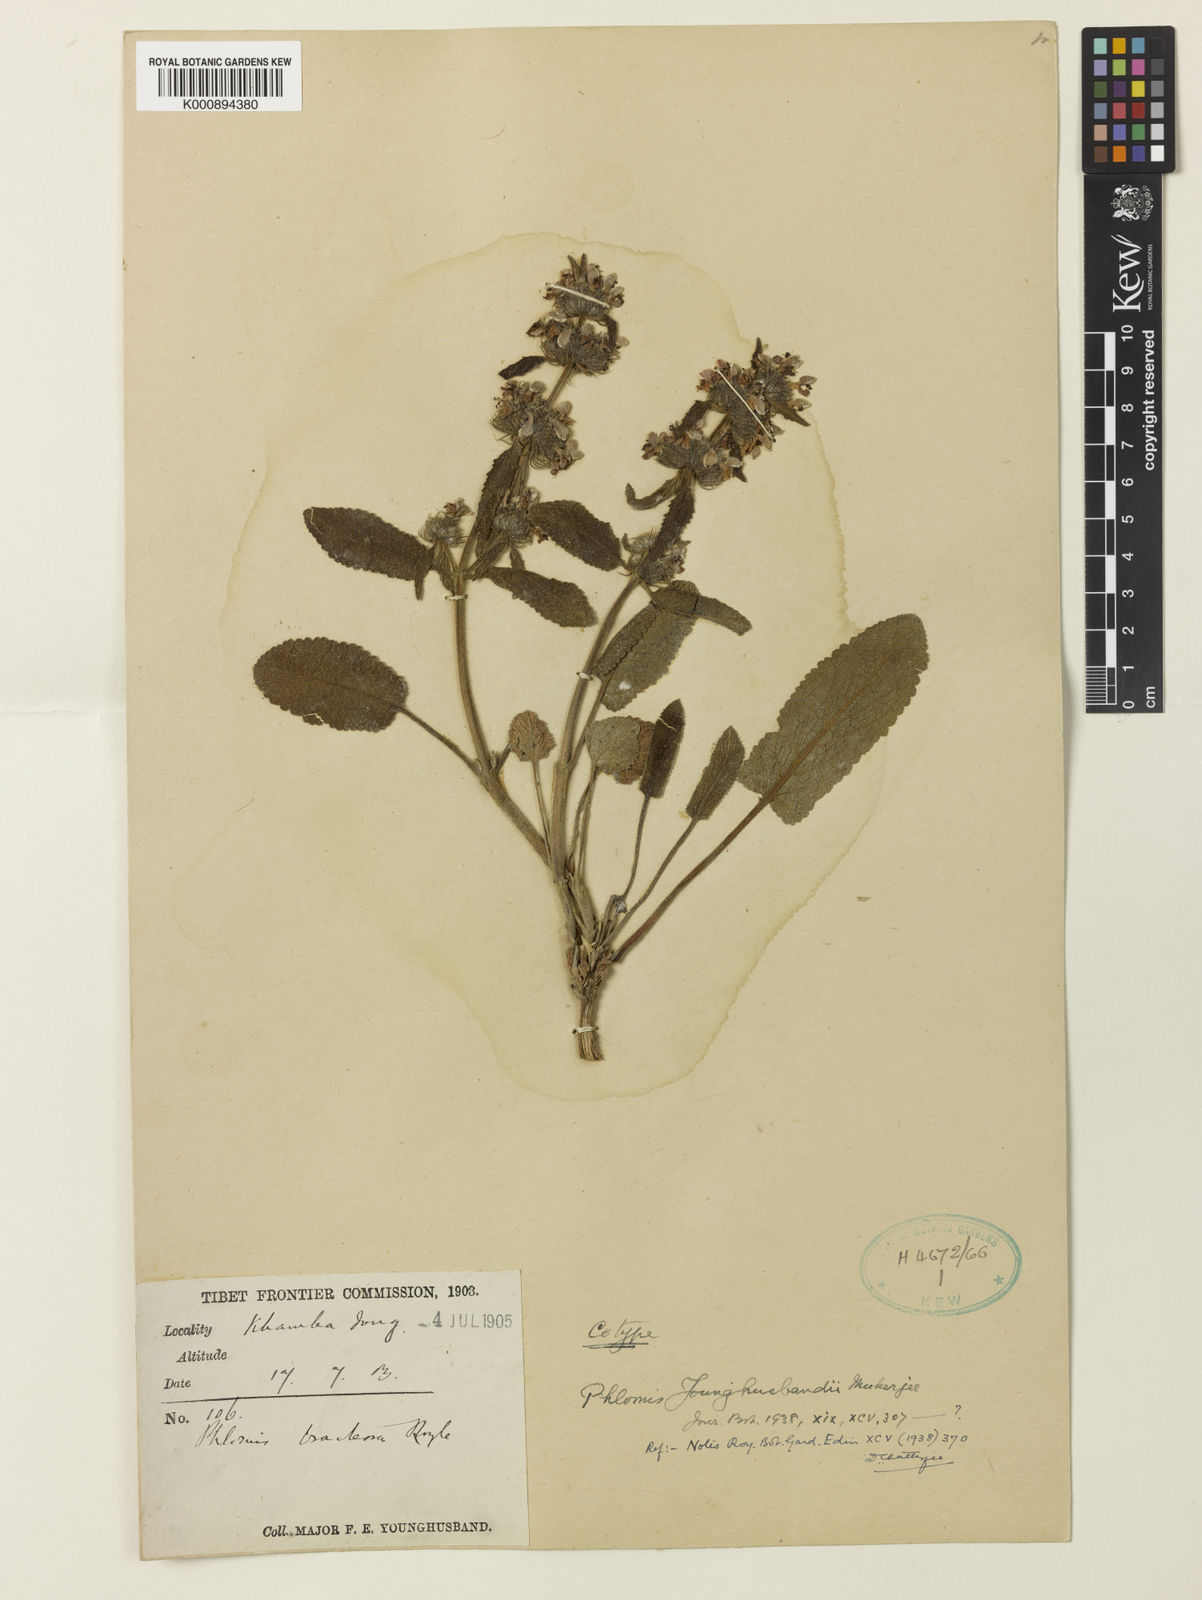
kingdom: Plantae
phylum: Tracheophyta
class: Magnoliopsida
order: Lamiales
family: Lamiaceae
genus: Phlomis
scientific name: Phlomis
